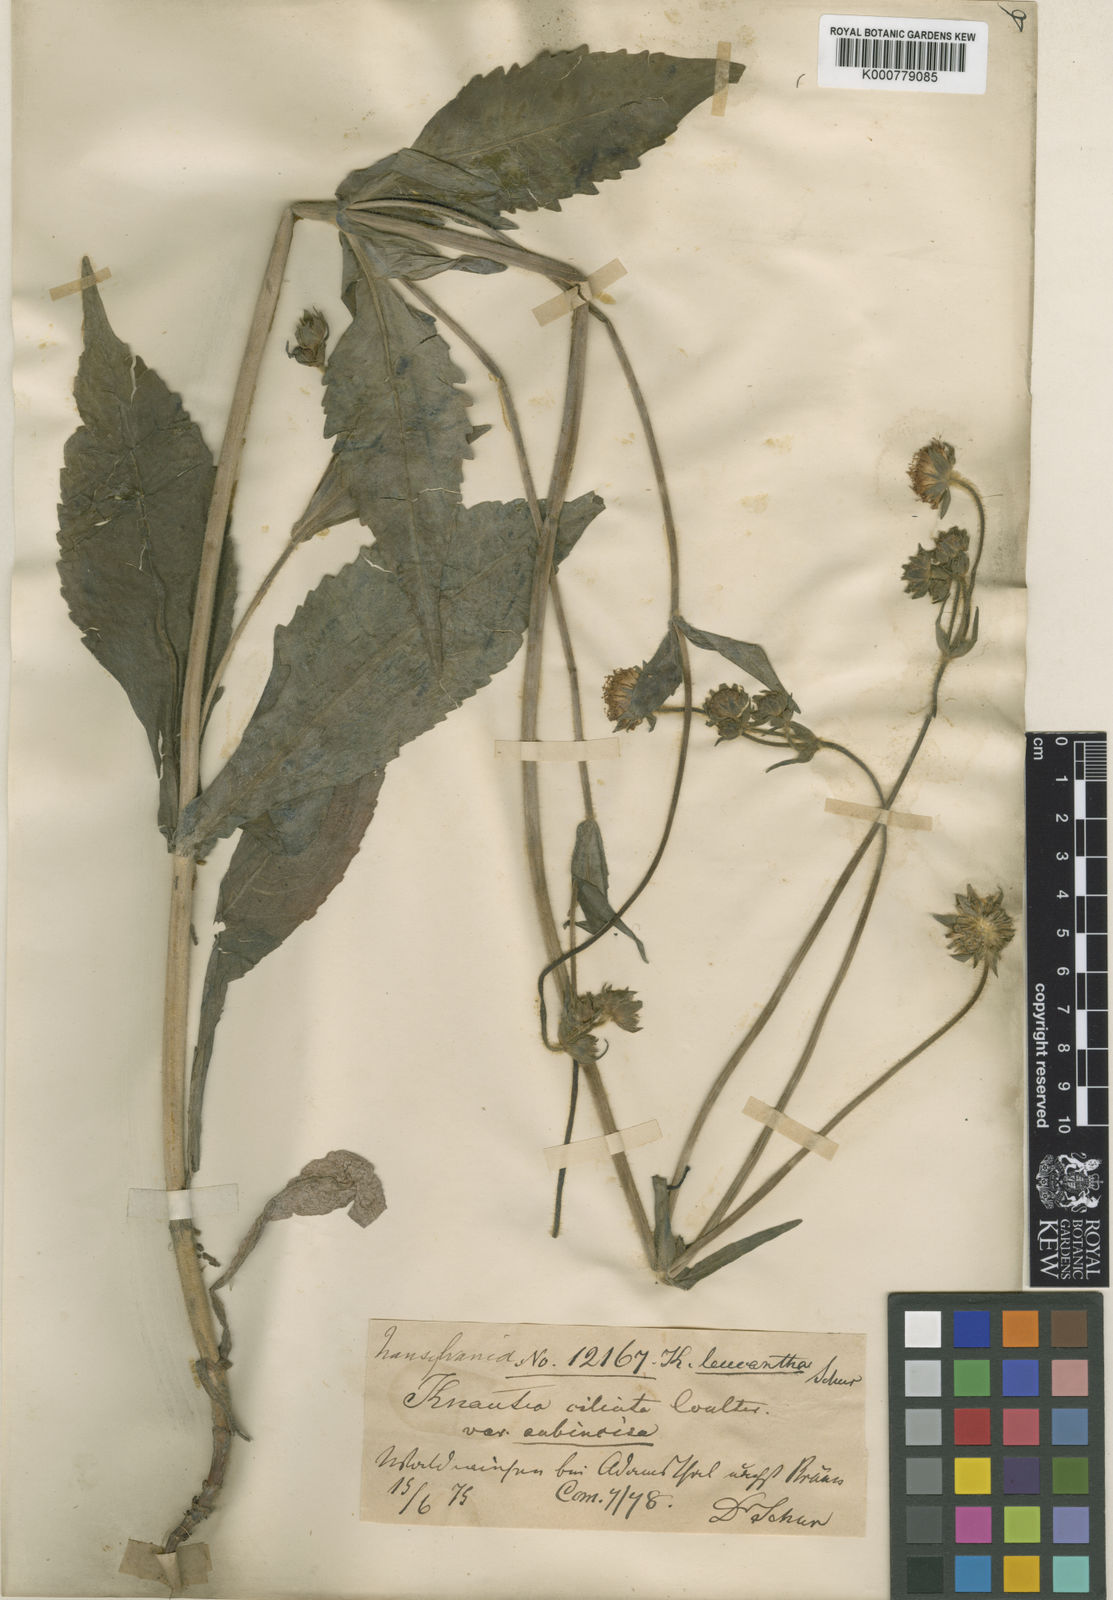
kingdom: Plantae
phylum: Tracheophyta
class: Magnoliopsida
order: Dipsacales
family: Caprifoliaceae
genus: Knautia
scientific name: Knautia dinarica
